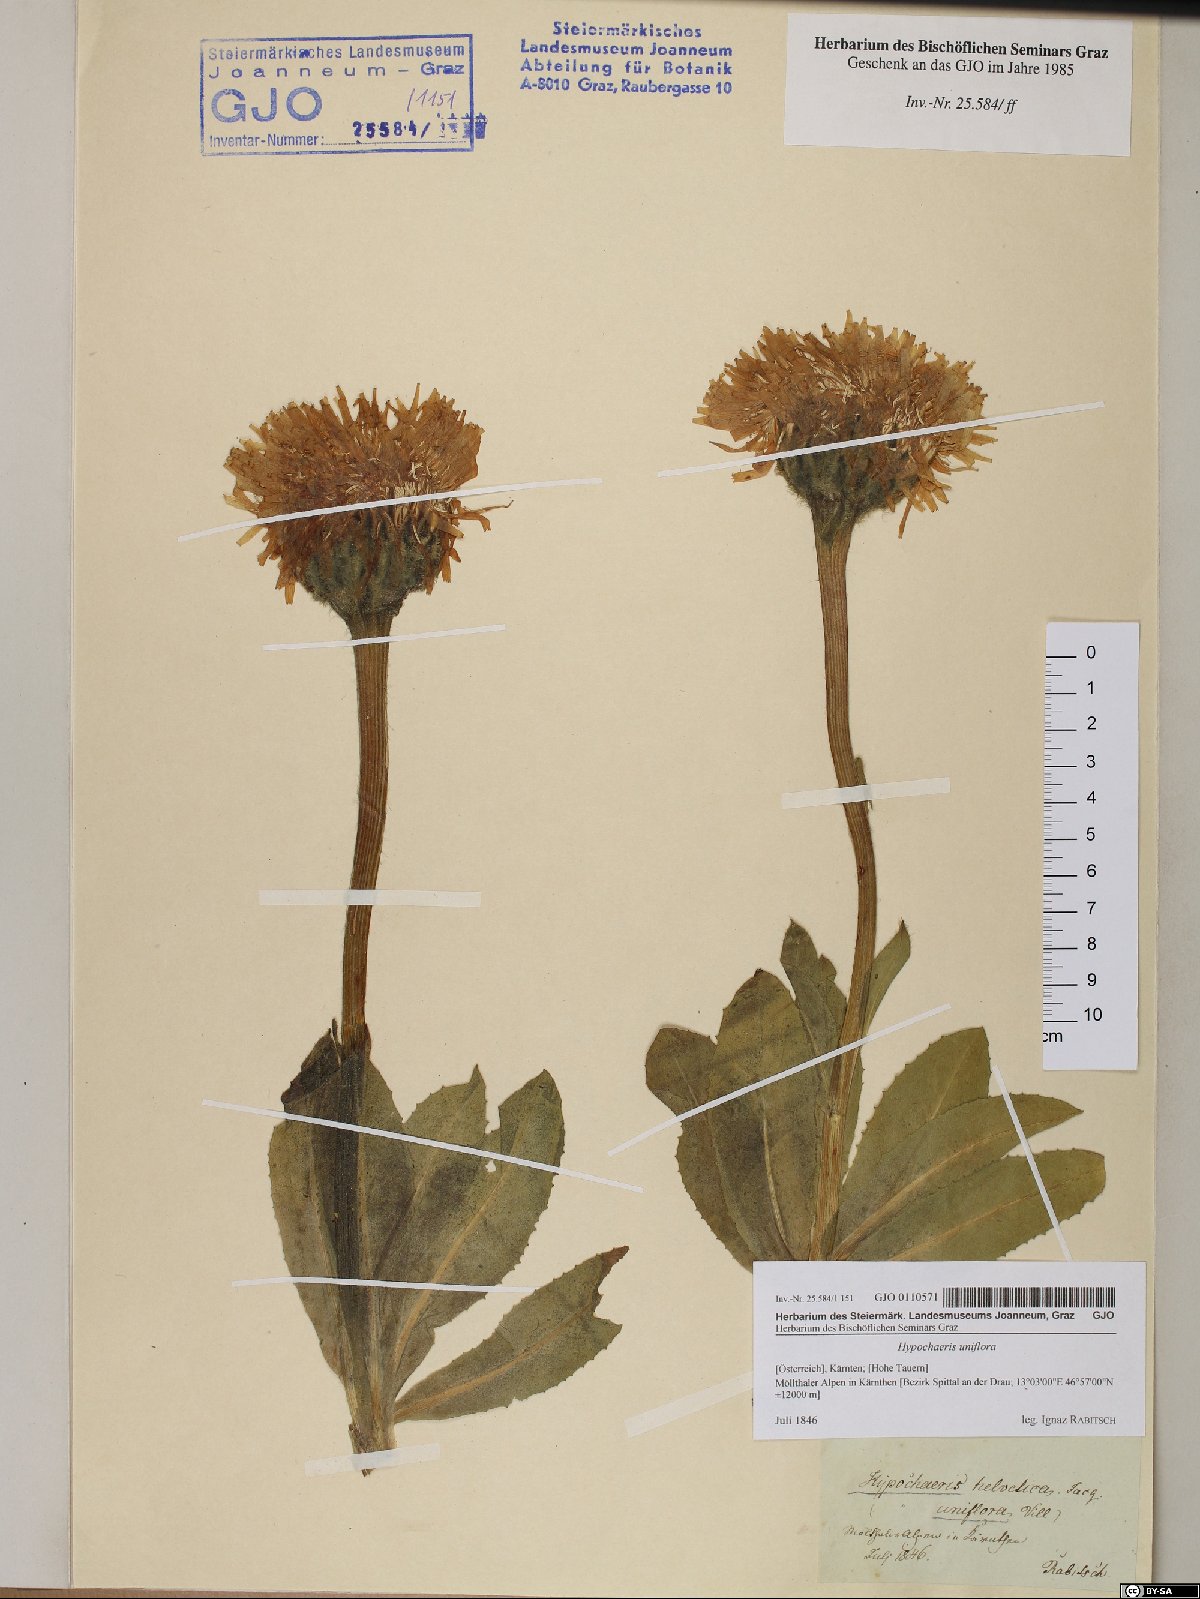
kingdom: Plantae
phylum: Tracheophyta
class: Magnoliopsida
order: Asterales
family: Asteraceae
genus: Trommsdorffia
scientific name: Trommsdorffia uniflora
